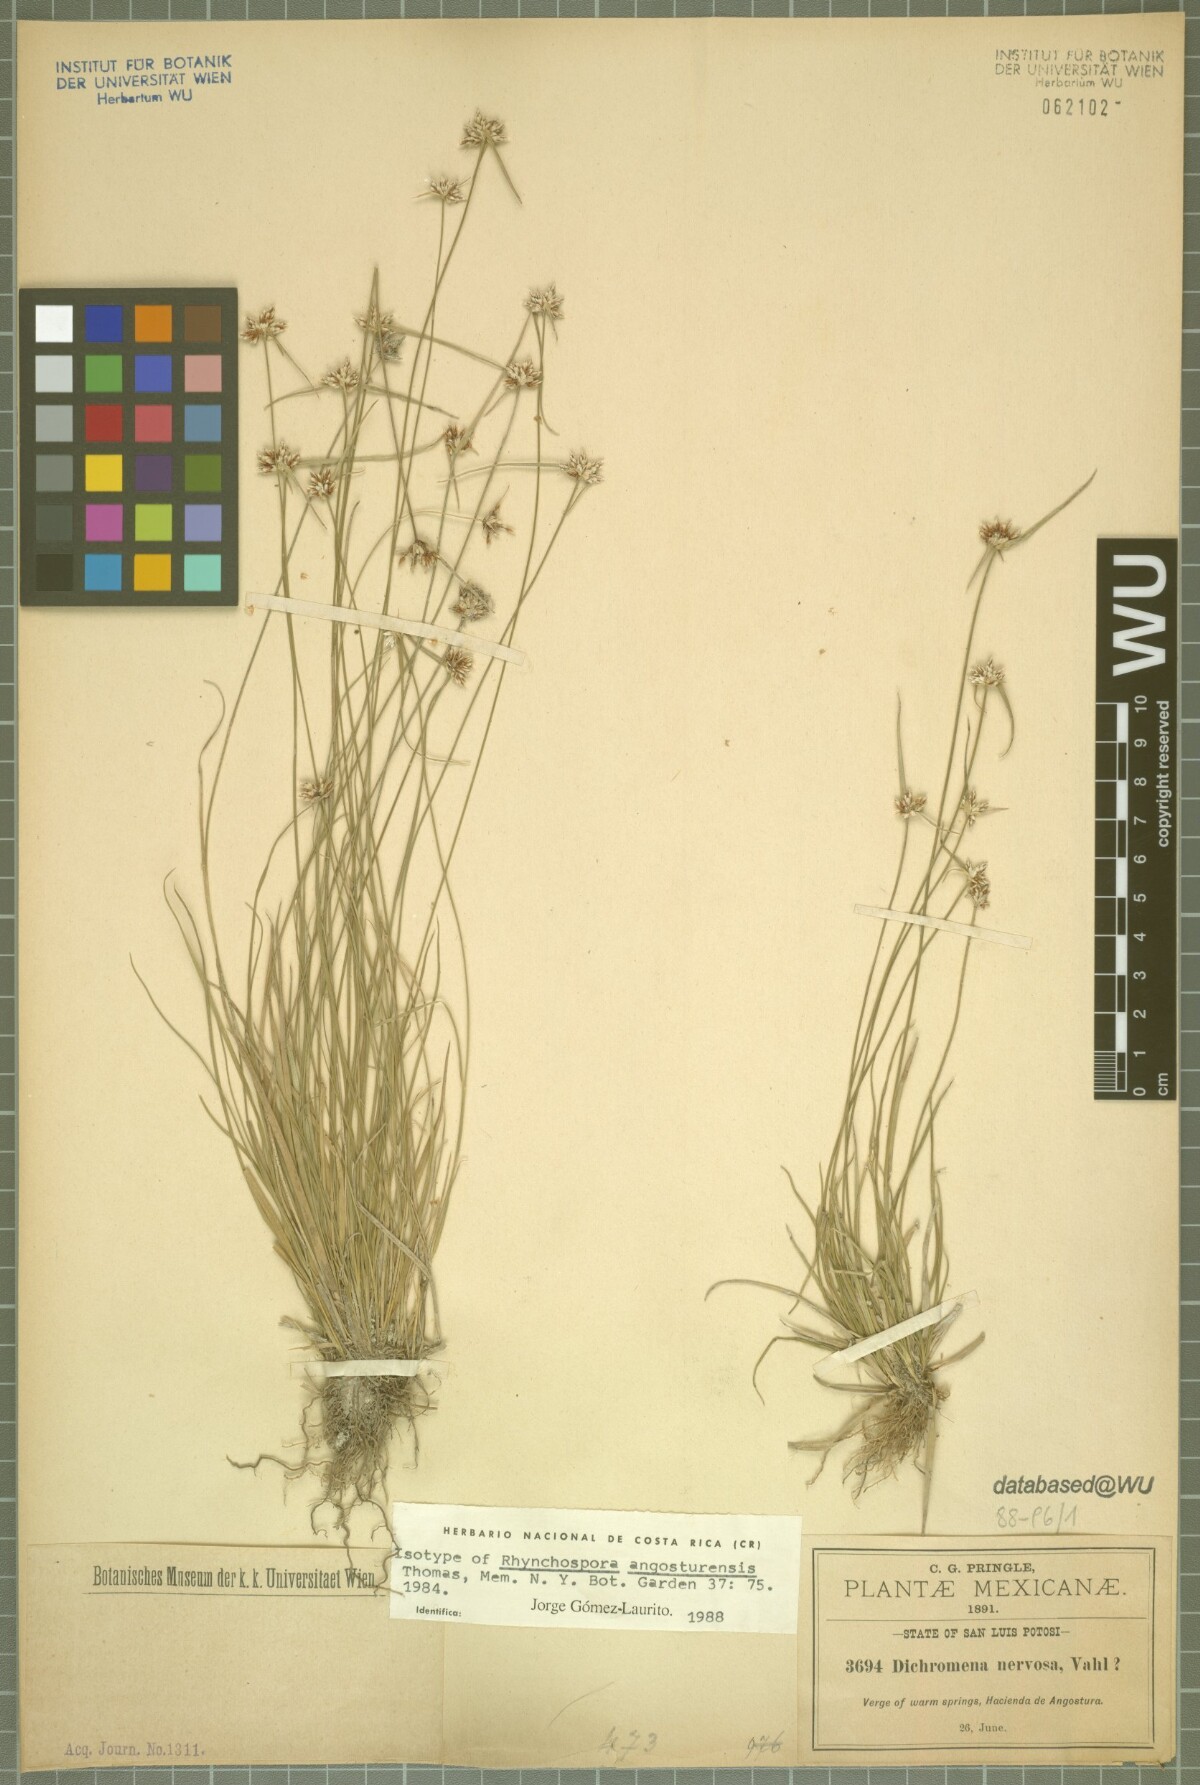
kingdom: Plantae
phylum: Tracheophyta
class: Liliopsida
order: Poales
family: Cyperaceae
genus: Rhynchospora
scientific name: Rhynchospora angosturensis
